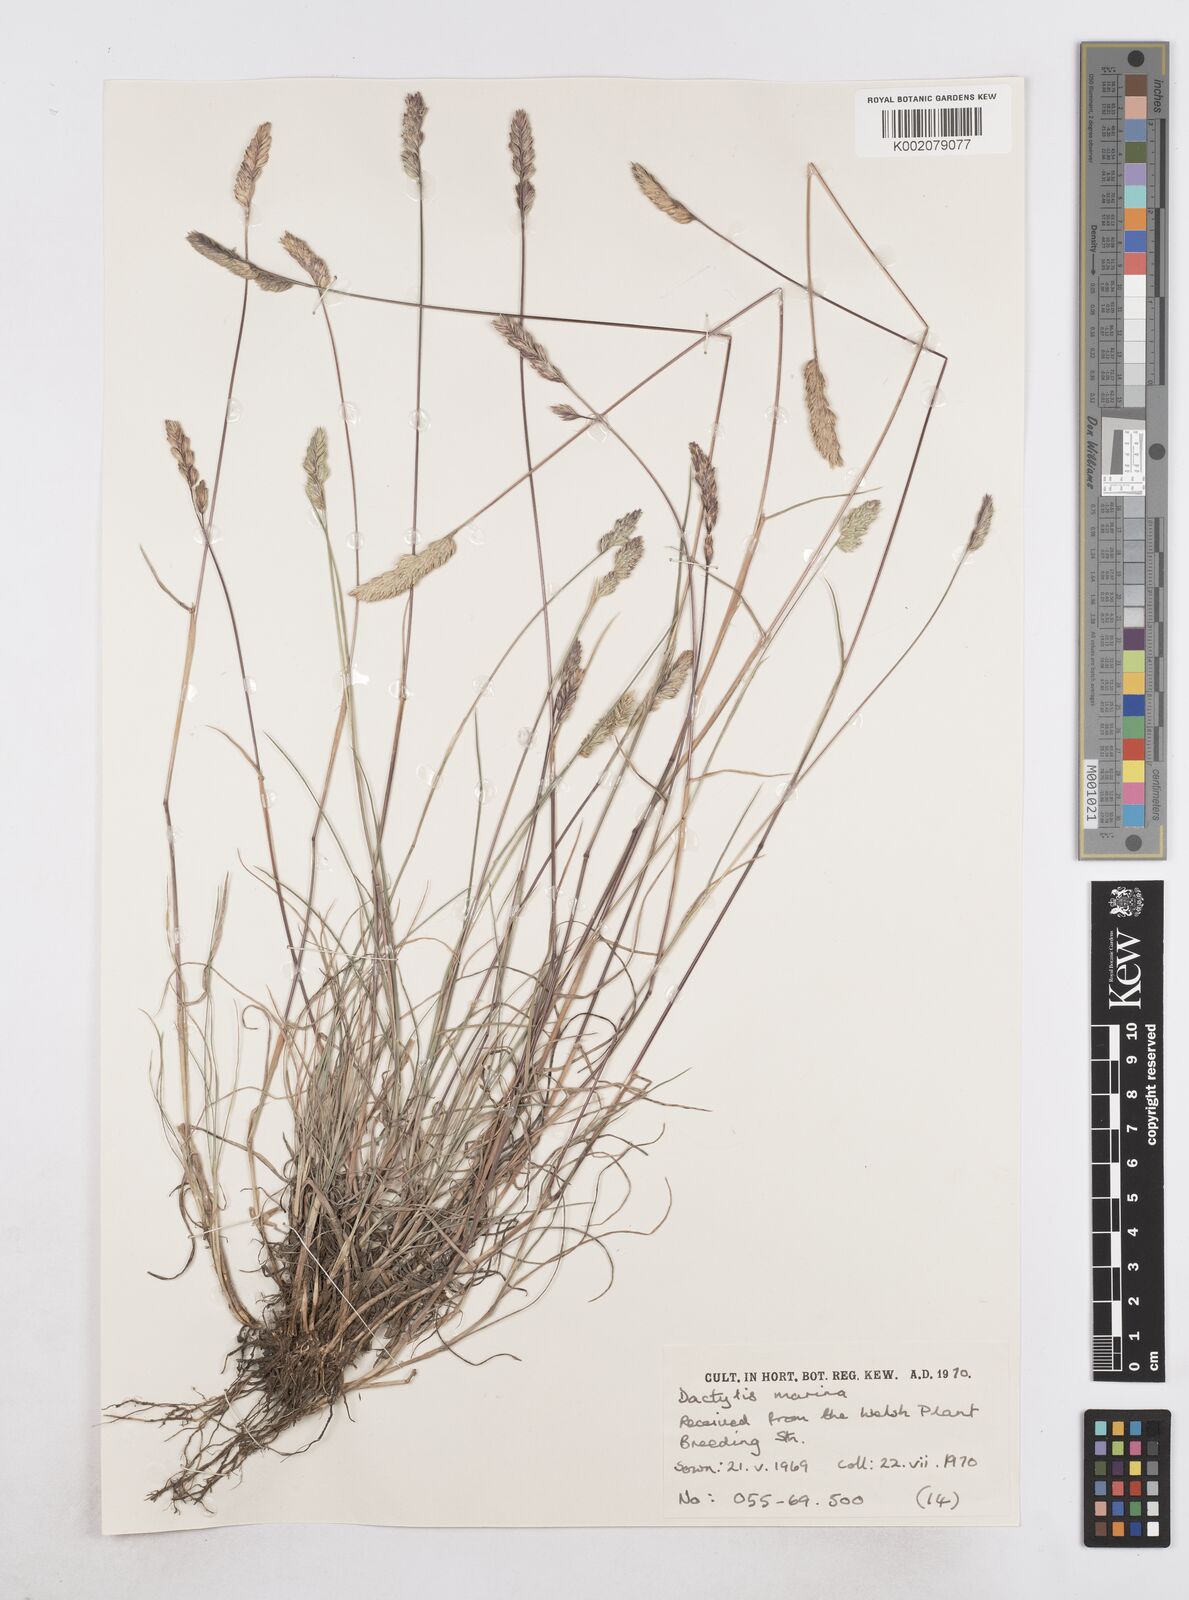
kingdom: Plantae
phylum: Tracheophyta
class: Liliopsida
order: Poales
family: Poaceae
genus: Dactylis
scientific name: Dactylis glomerata
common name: Orchardgrass
